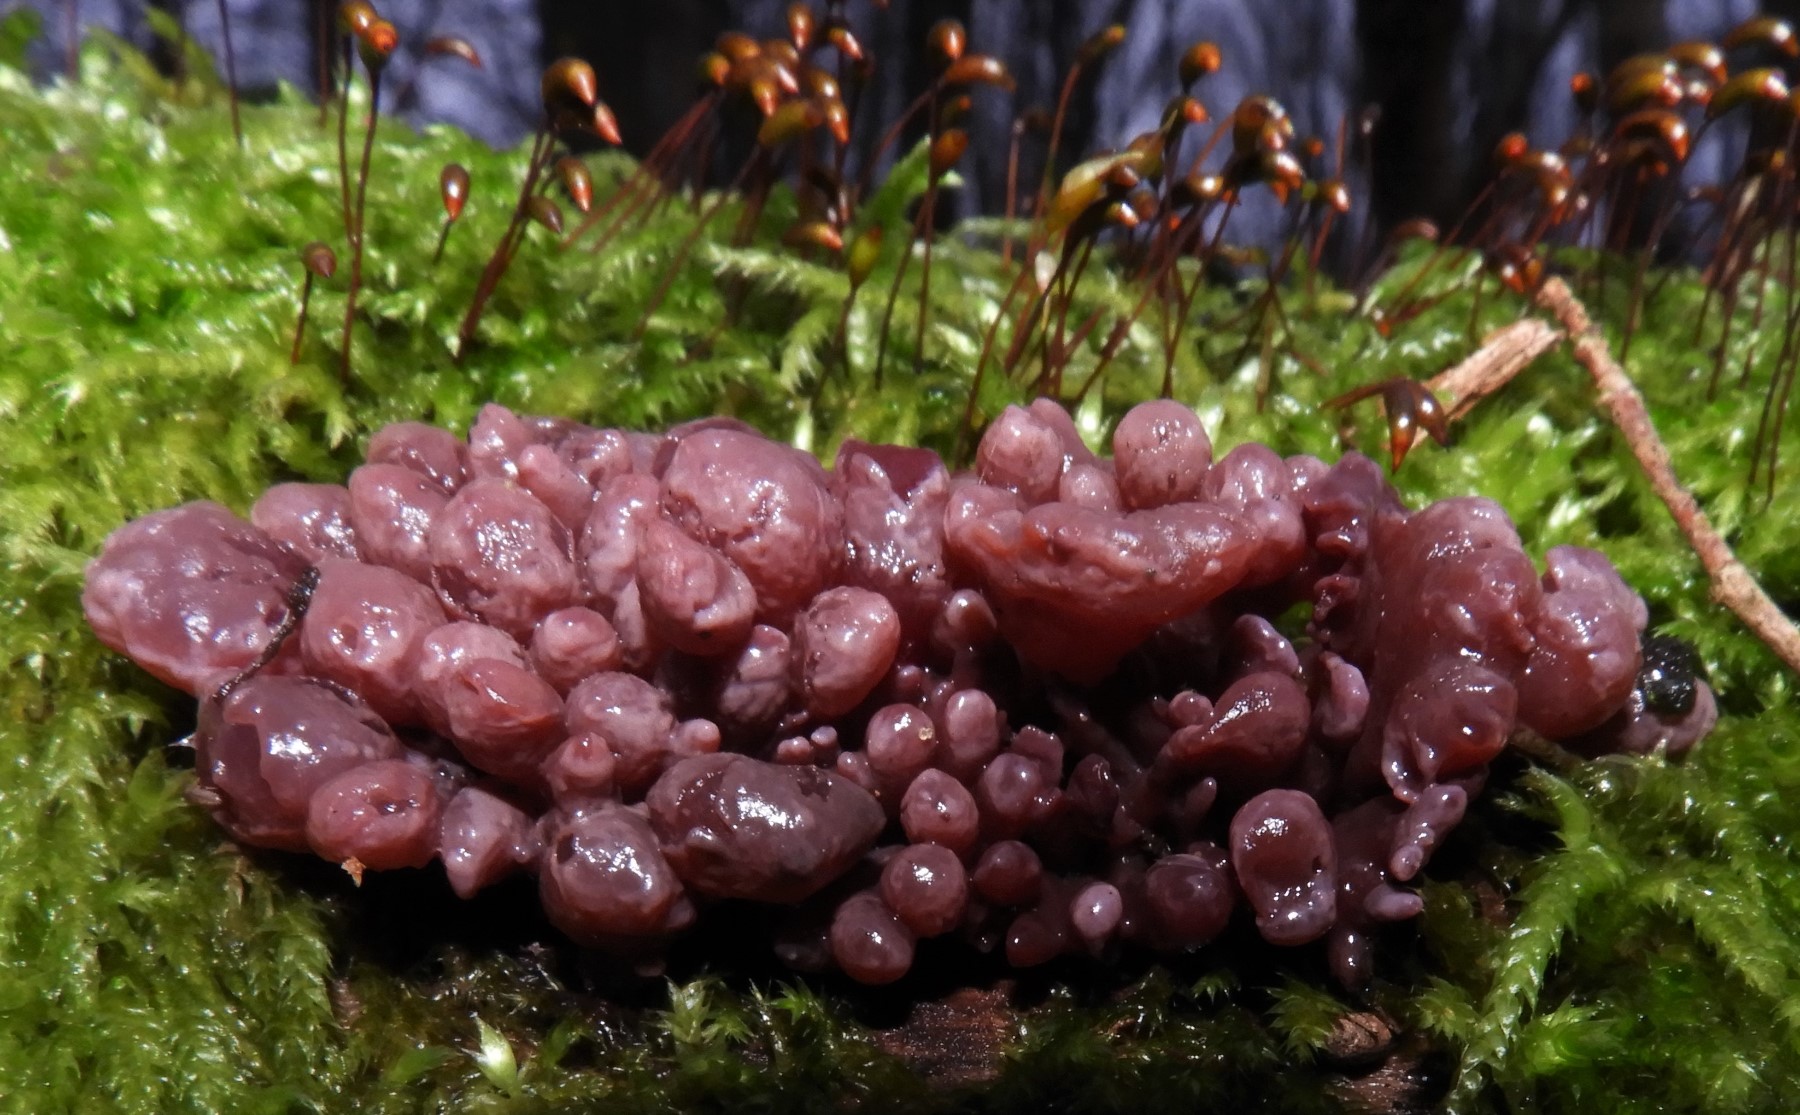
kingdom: Fungi
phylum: Ascomycota
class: Leotiomycetes
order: Helotiales
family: Gelatinodiscaceae
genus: Ascocoryne
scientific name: Ascocoryne sarcoides
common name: rødlilla sejskive
